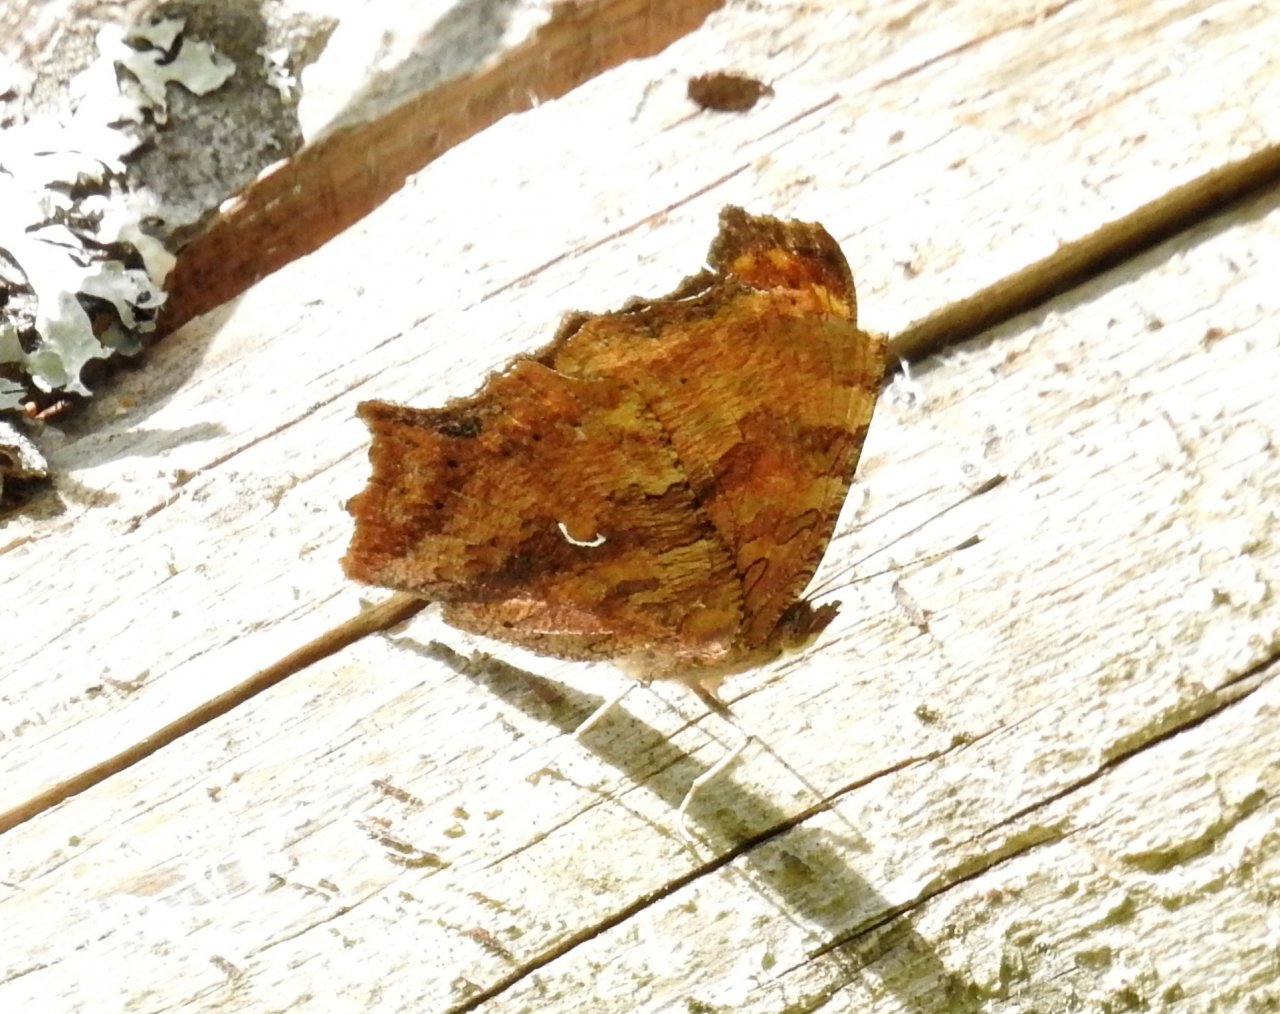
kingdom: Animalia
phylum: Arthropoda
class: Insecta
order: Lepidoptera
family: Nymphalidae
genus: Polygonia
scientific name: Polygonia comma
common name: Eastern Comma
